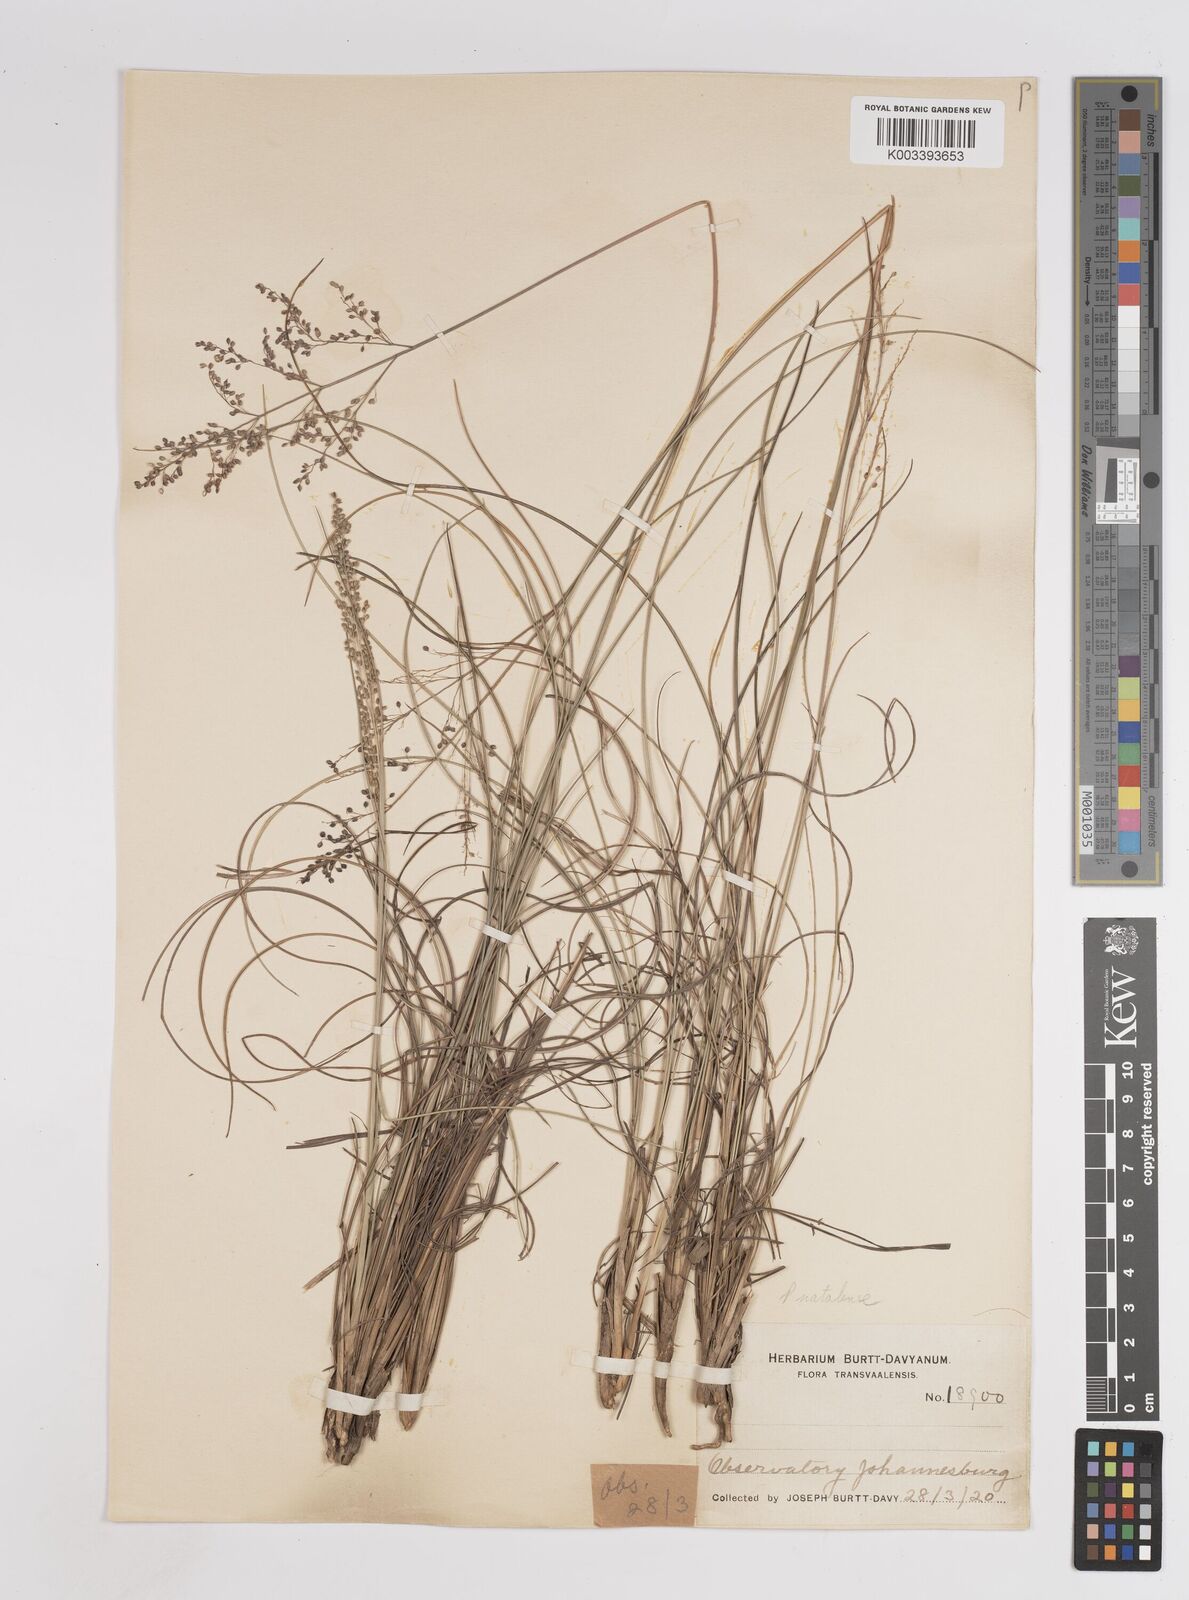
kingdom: Plantae
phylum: Tracheophyta
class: Liliopsida
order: Poales
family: Poaceae
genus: Trichanthecium
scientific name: Trichanthecium natalense
